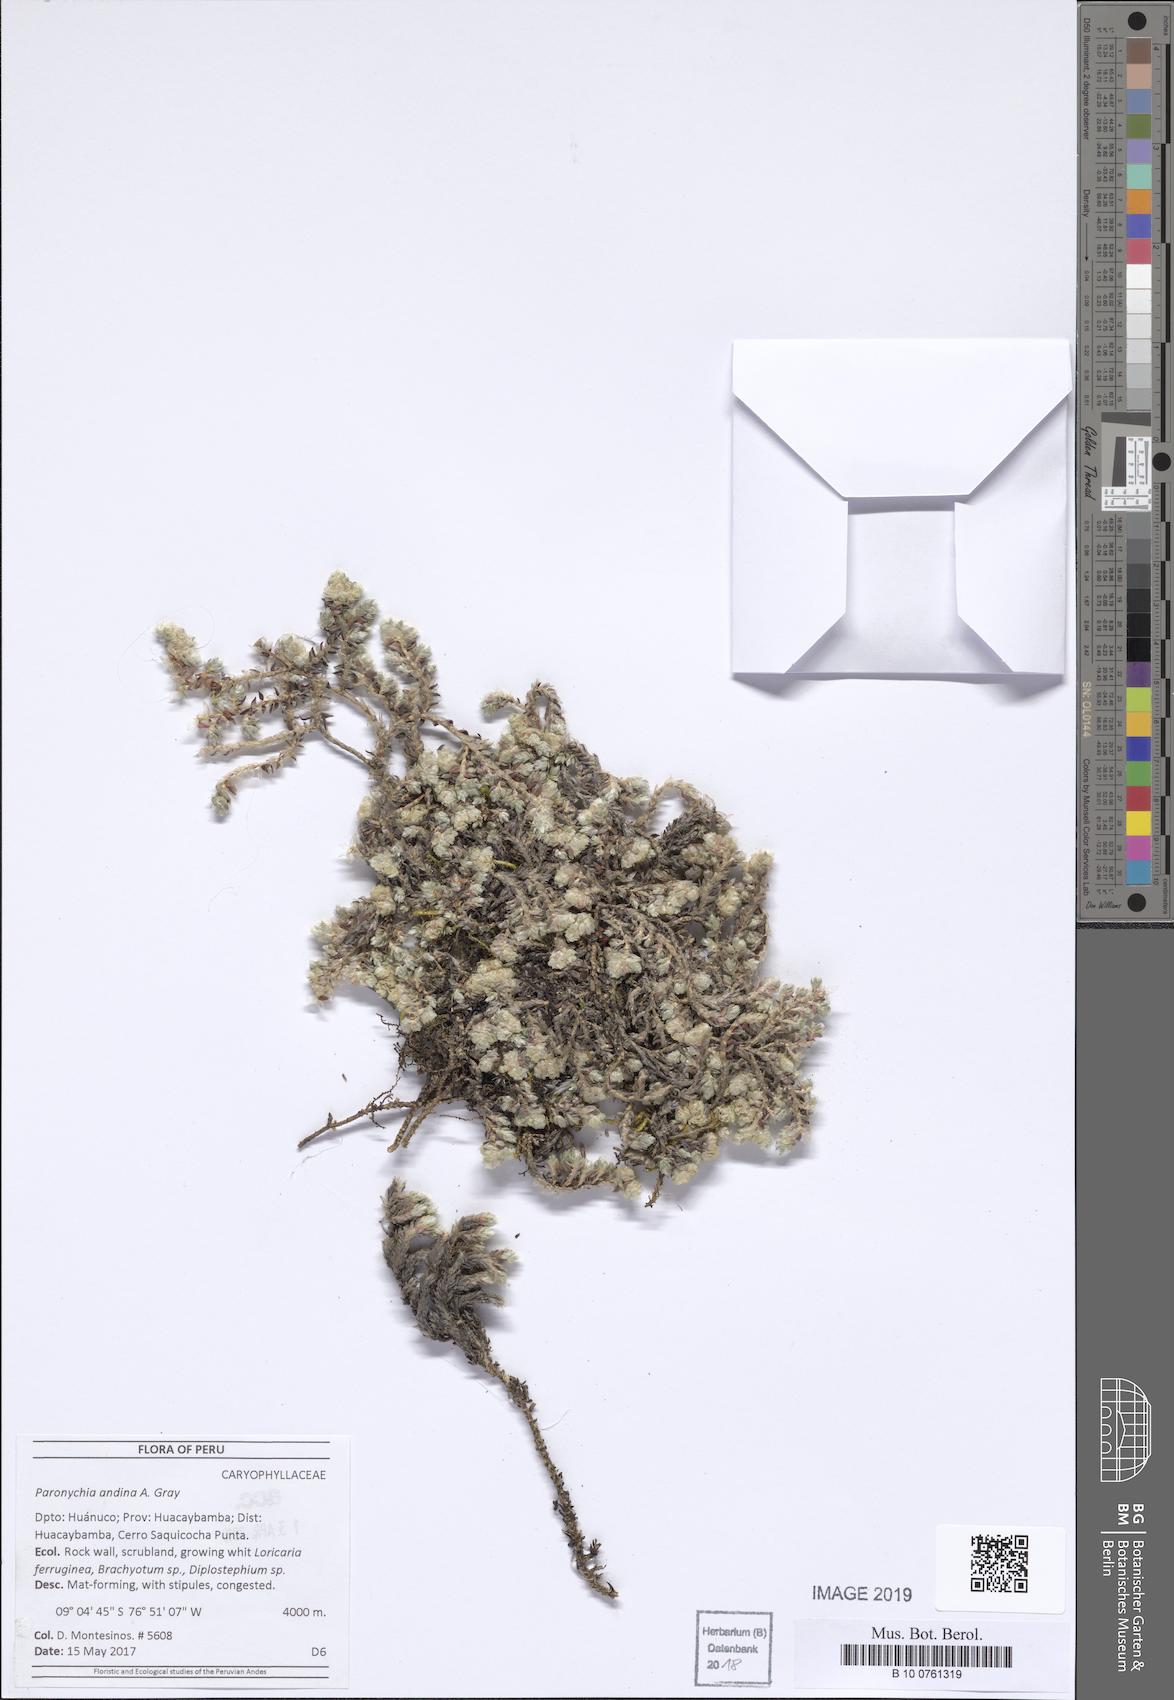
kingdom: Plantae
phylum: Tracheophyta
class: Magnoliopsida
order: Caryophyllales
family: Caryophyllaceae
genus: Paronychia
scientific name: Paronychia
